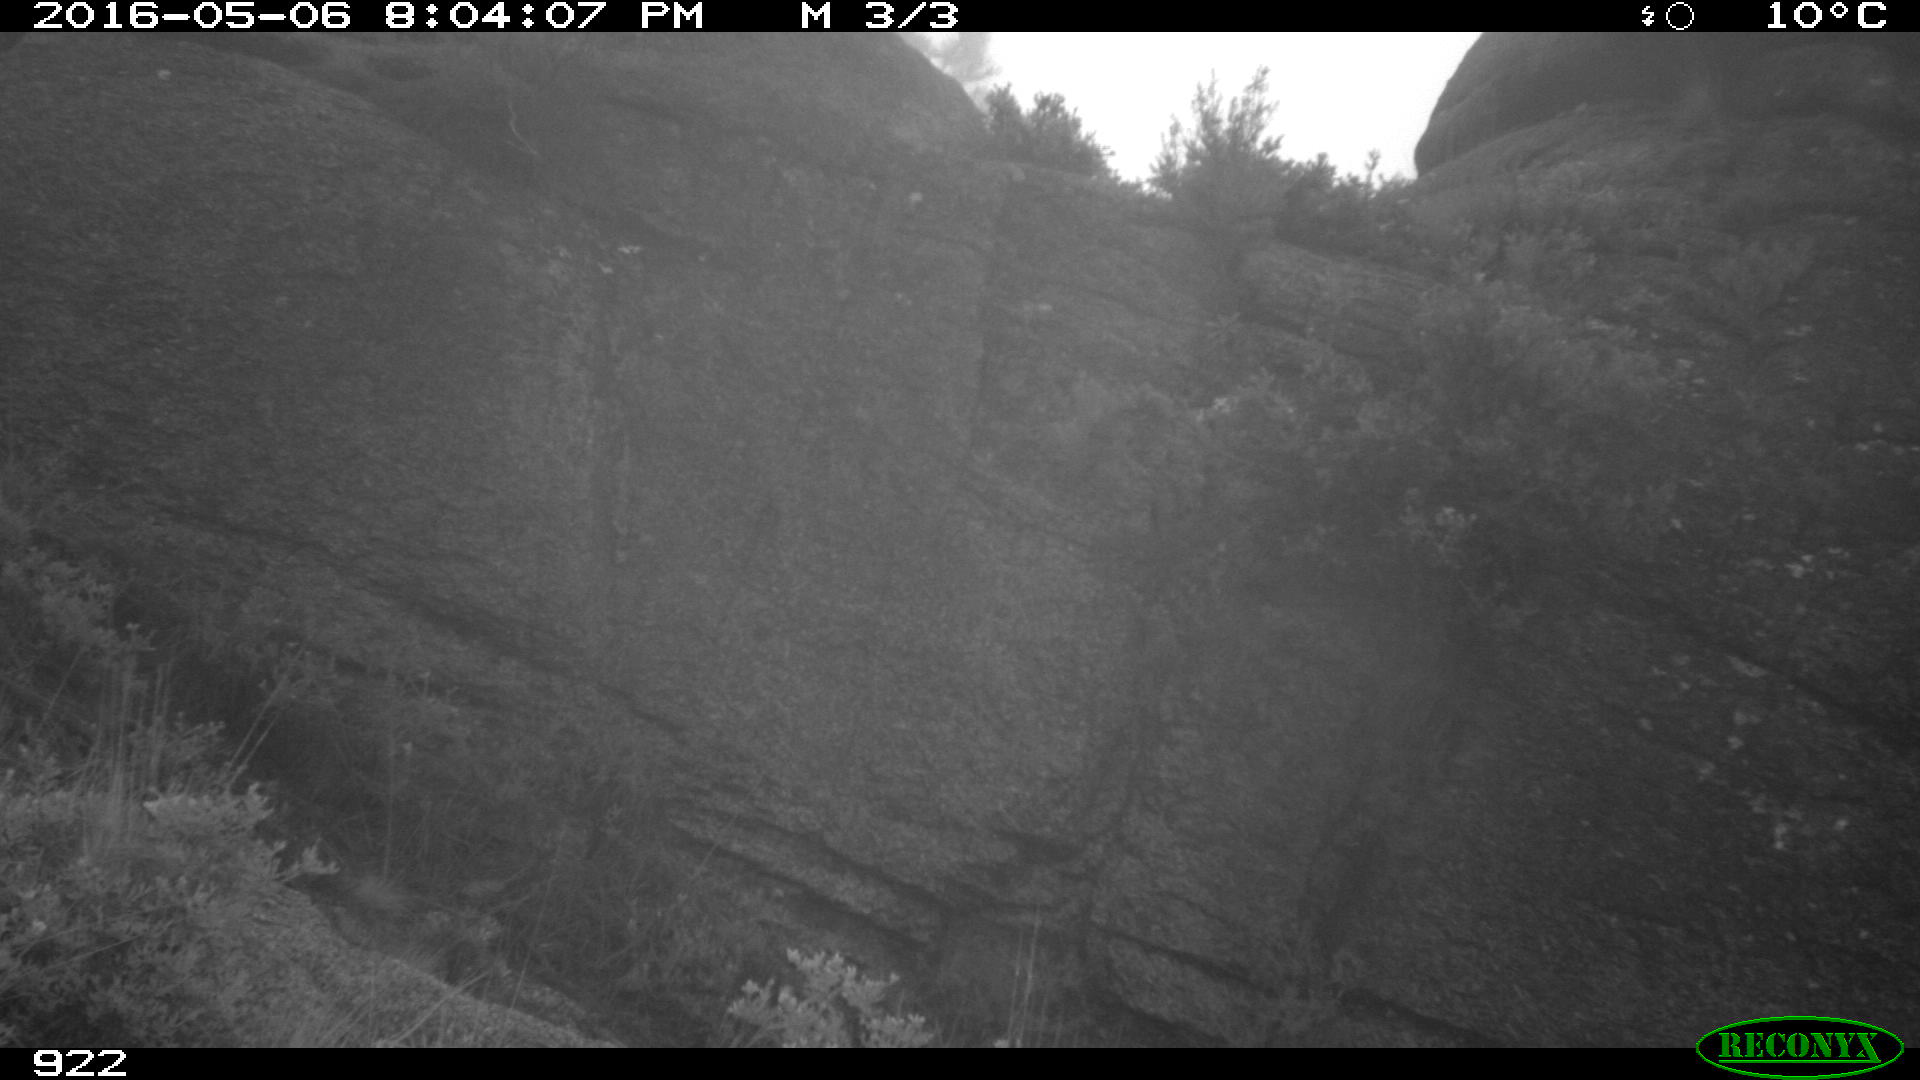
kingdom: Animalia
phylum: Chordata
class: Mammalia
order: Artiodactyla
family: Suidae
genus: Sus
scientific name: Sus scrofa
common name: Wild boar
